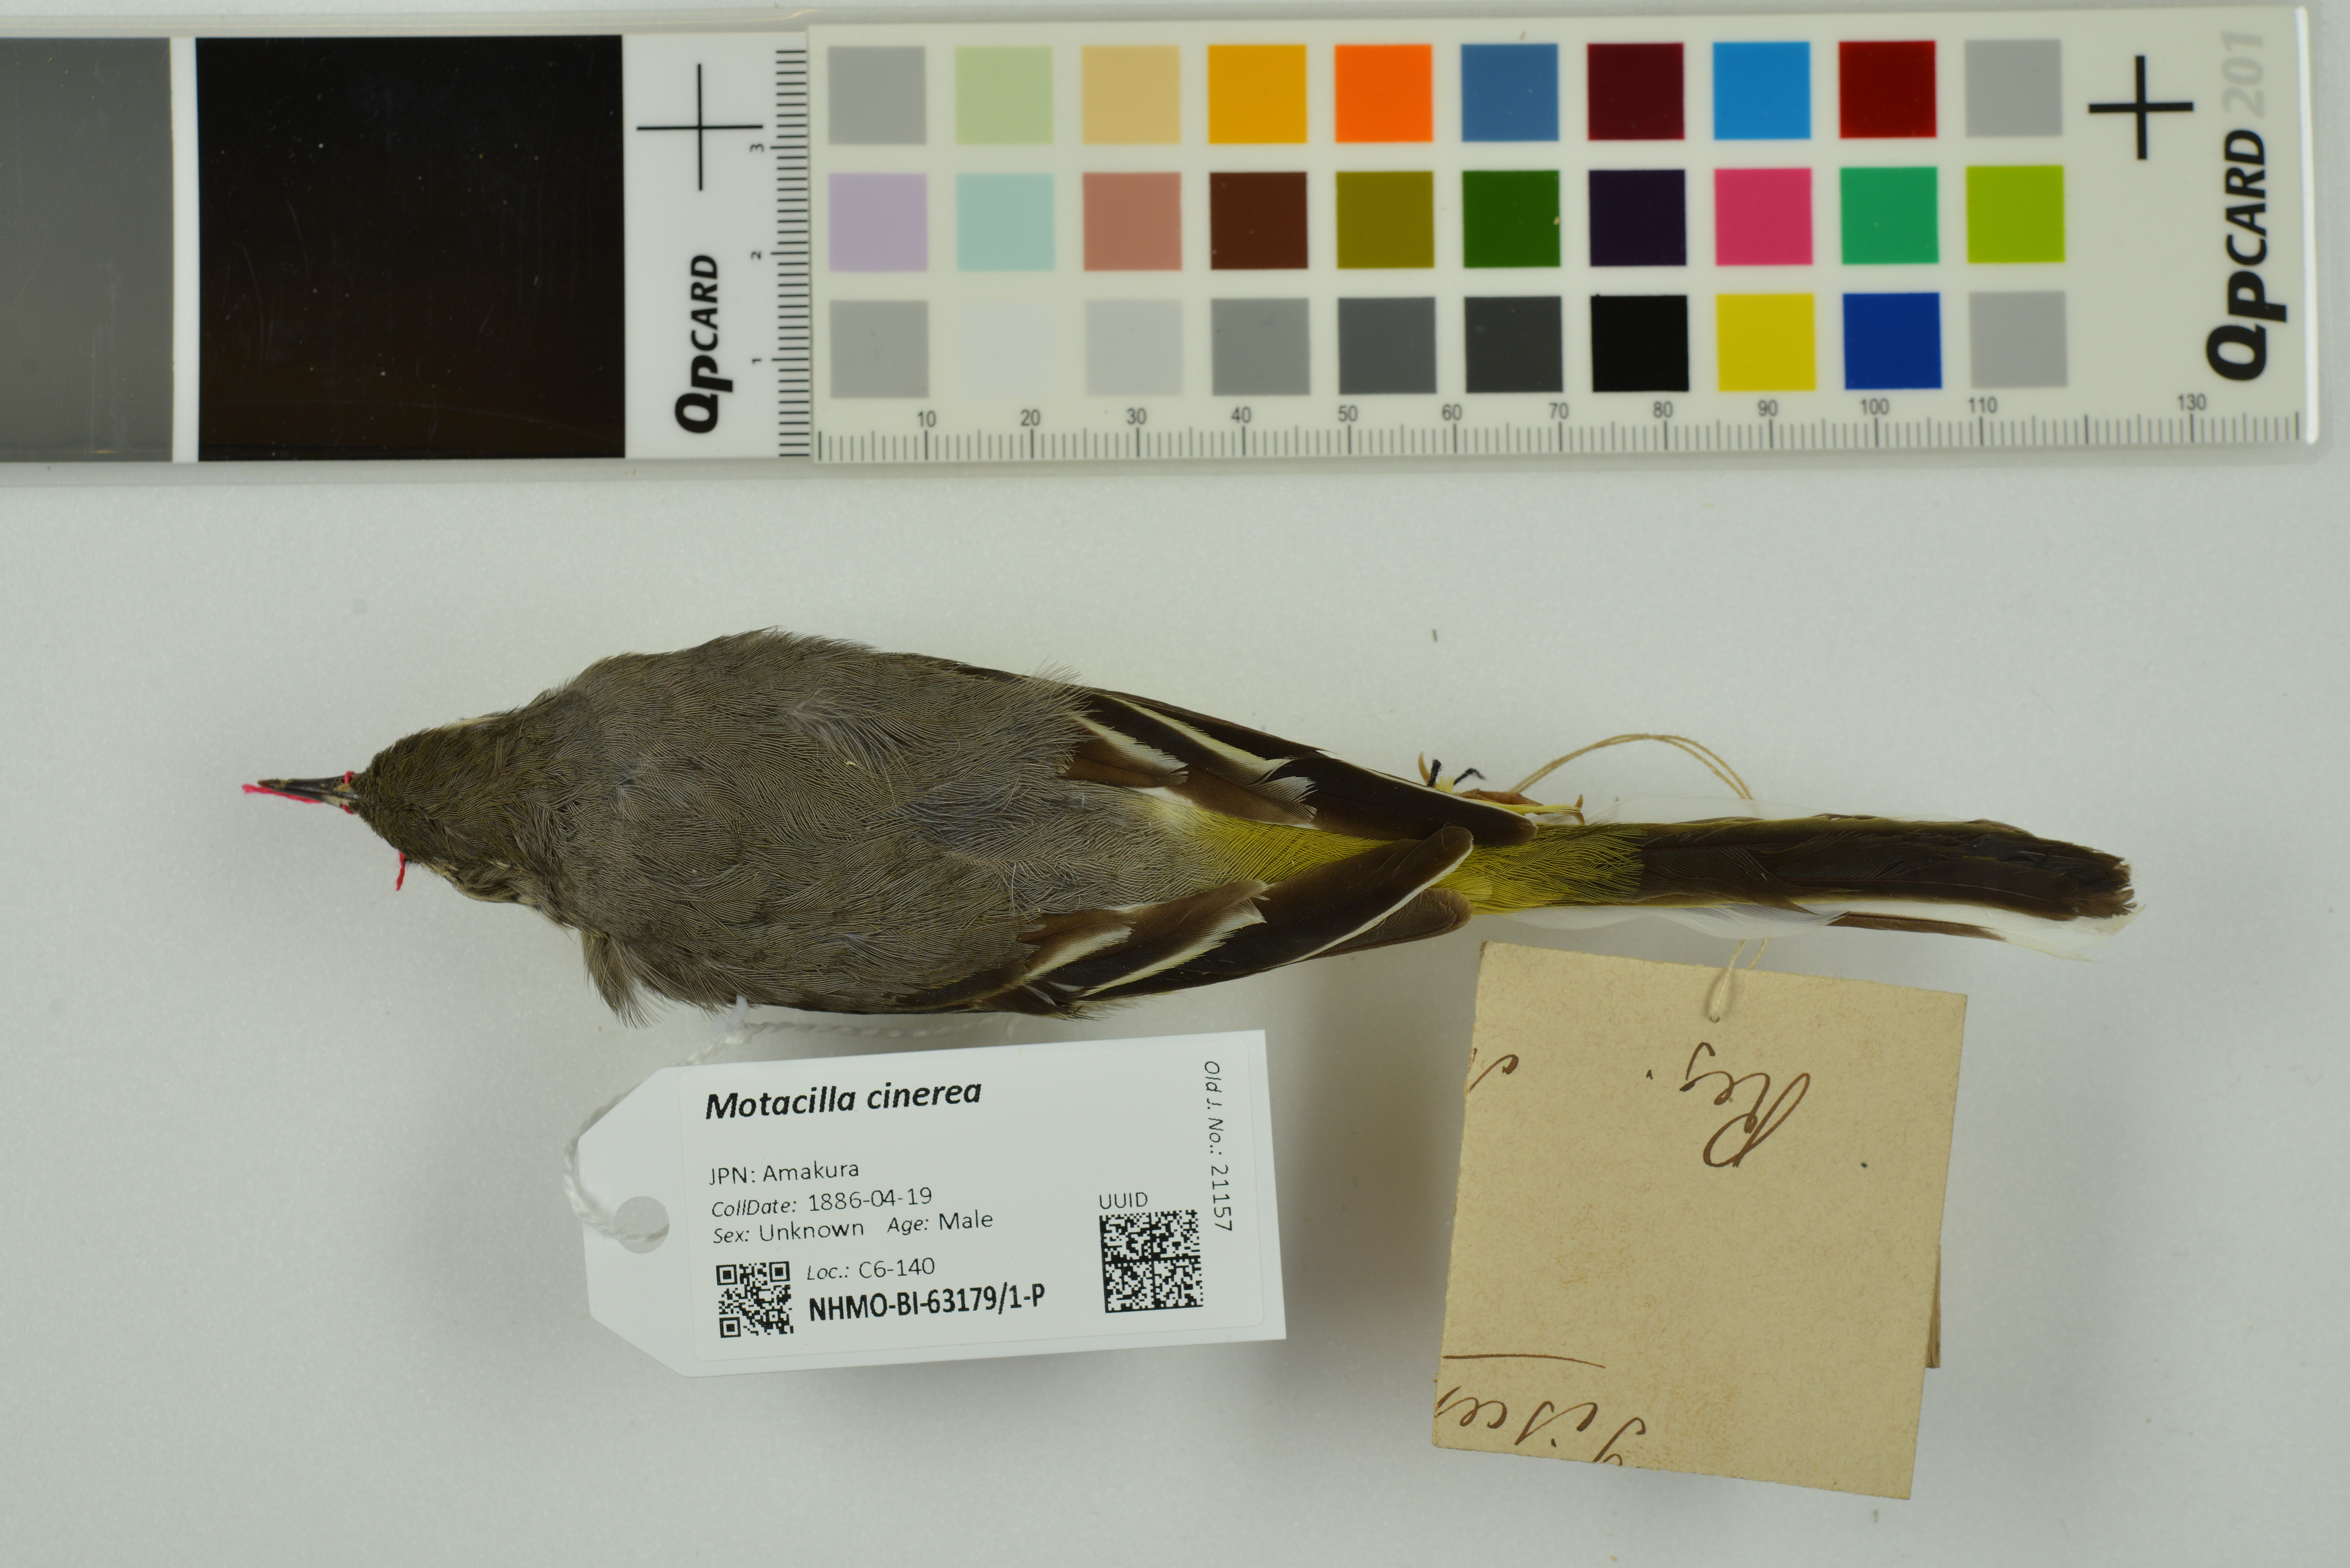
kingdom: Animalia
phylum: Chordata
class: Aves
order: Passeriformes
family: Motacillidae
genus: Motacilla
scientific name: Motacilla cinerea
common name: Grey wagtail
